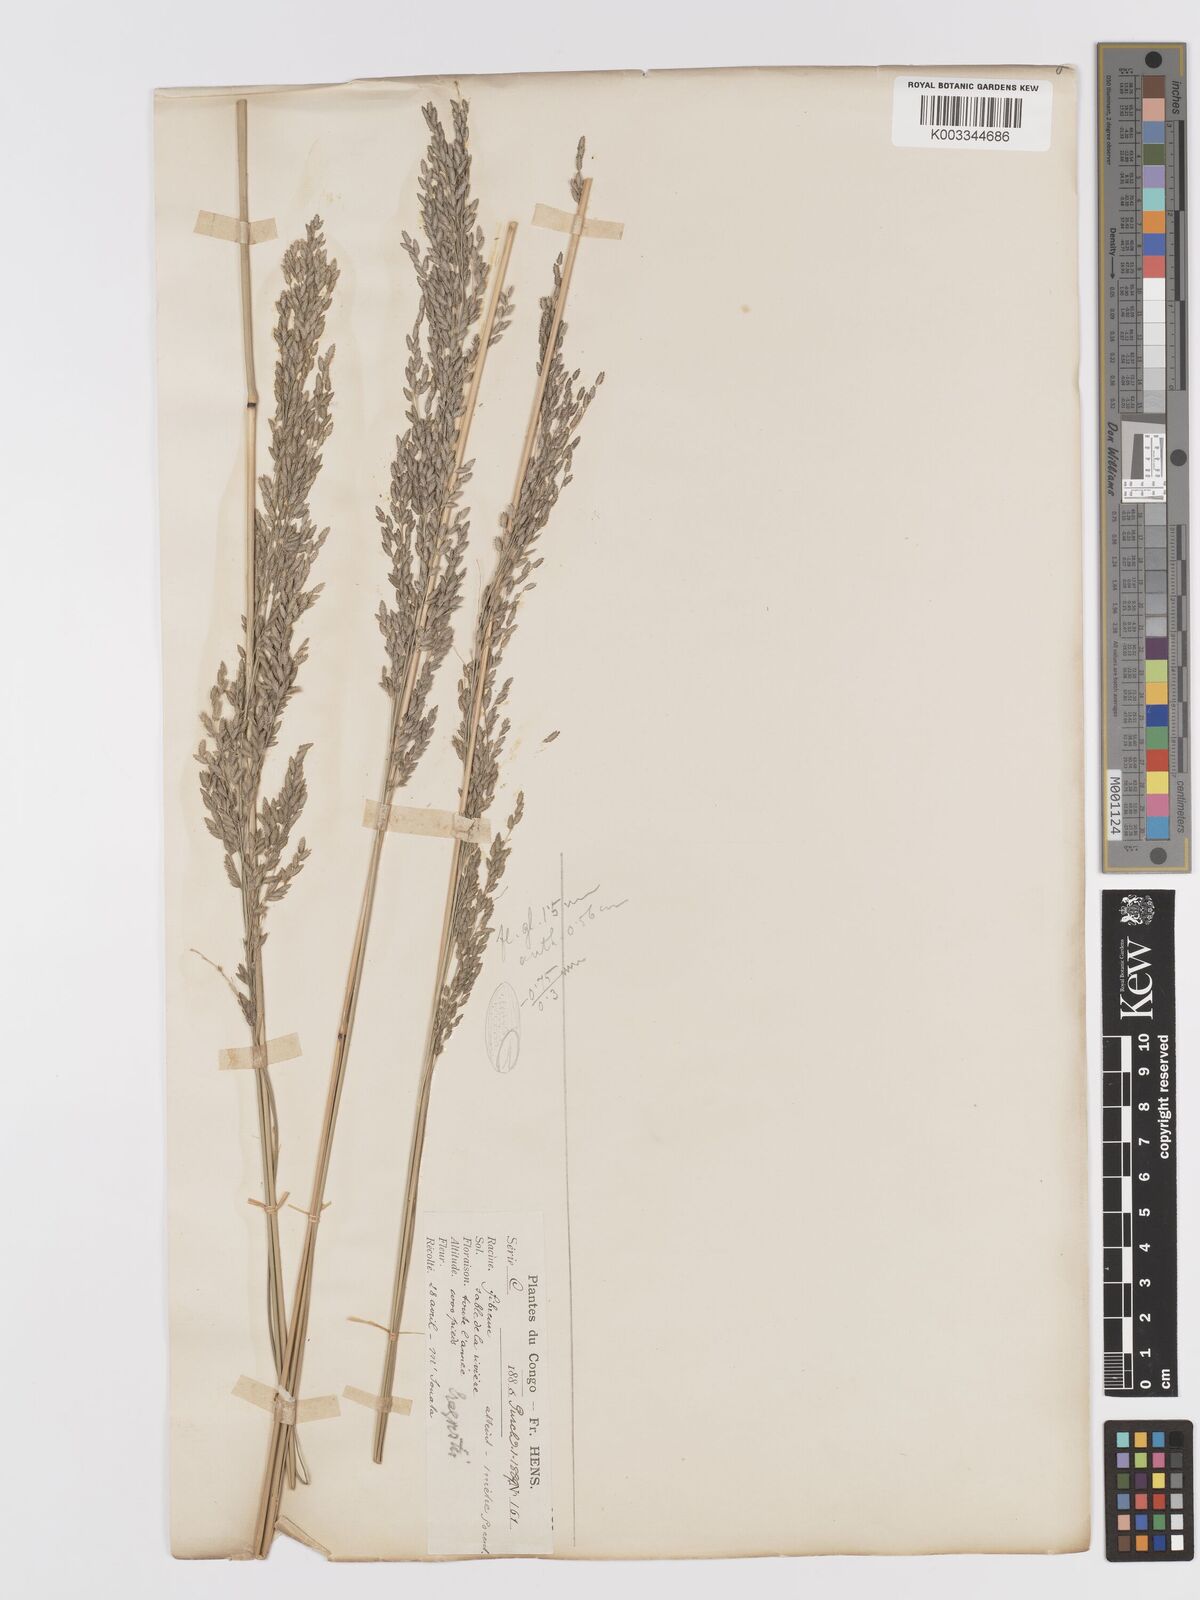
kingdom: Plantae
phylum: Tracheophyta
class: Liliopsida
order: Poales
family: Poaceae
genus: Eragrostis
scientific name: Eragrostis atrovirens
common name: Thalia lovegrass
